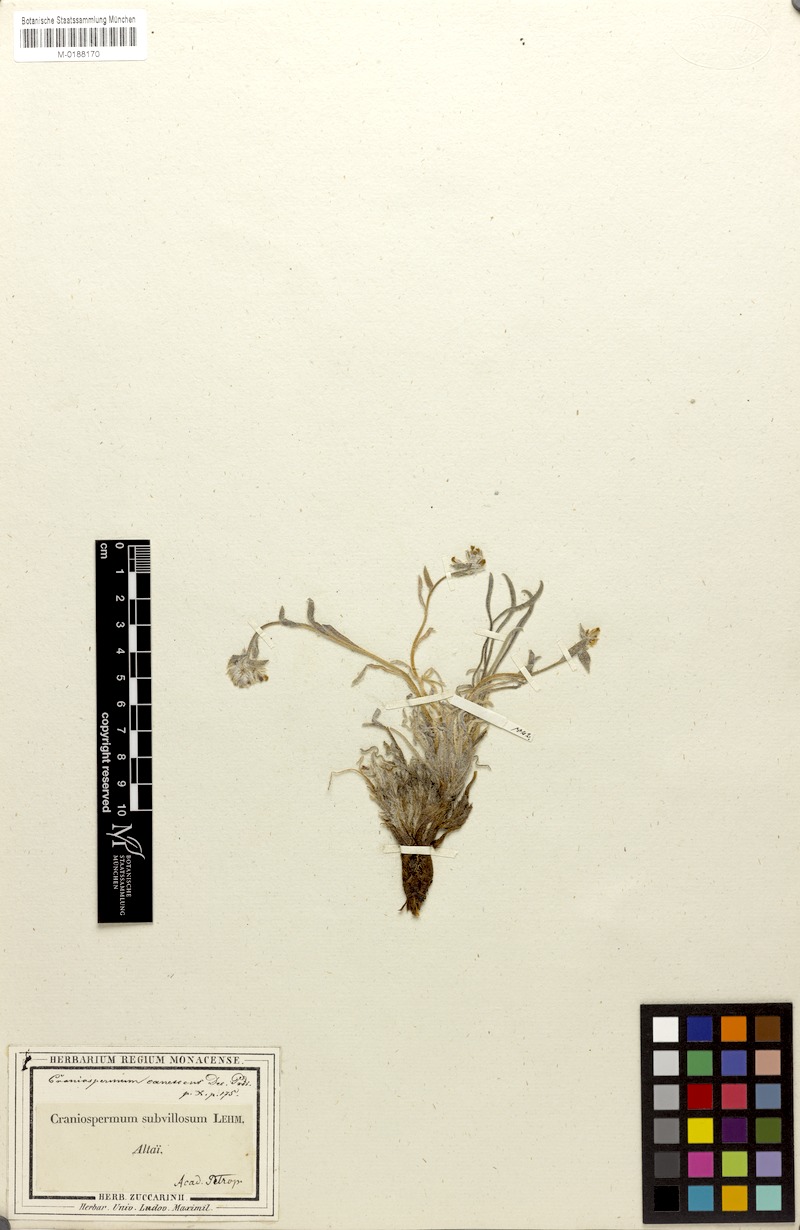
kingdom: Plantae
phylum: Tracheophyta
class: Magnoliopsida
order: Boraginales
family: Boraginaceae
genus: Craniospermum
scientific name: Craniospermum canescens
